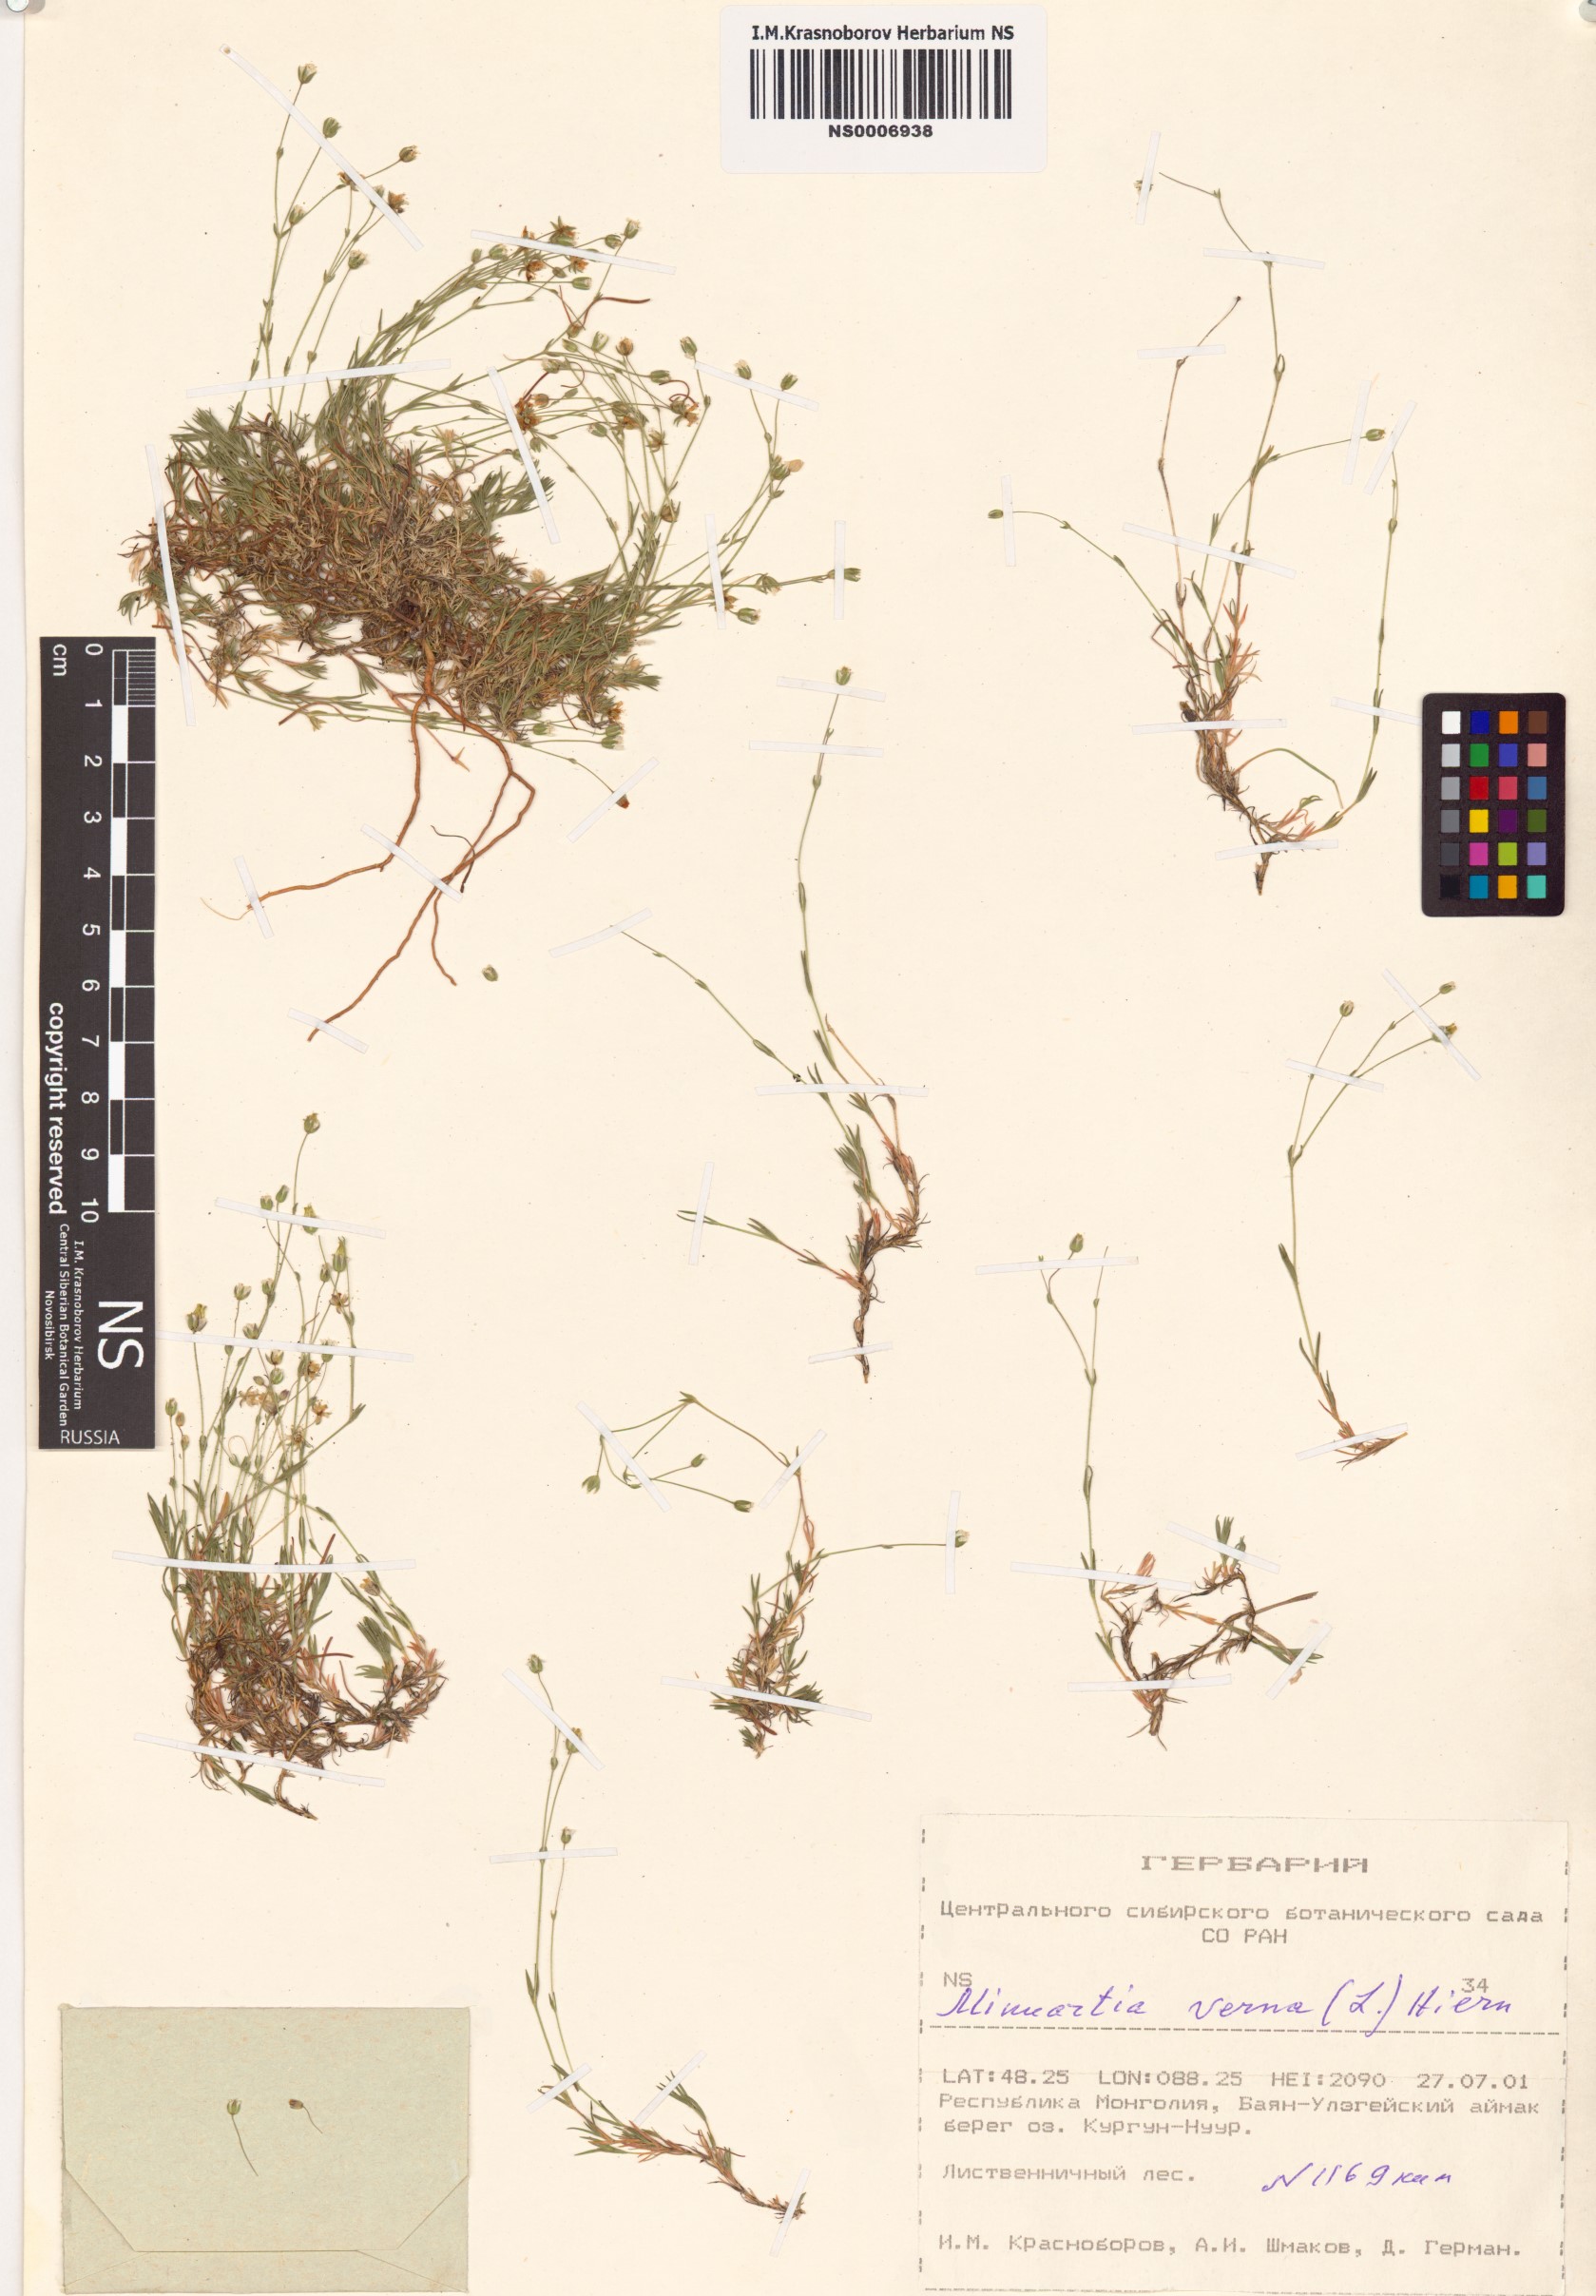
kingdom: Plantae
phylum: Tracheophyta
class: Magnoliopsida
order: Caryophyllales
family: Caryophyllaceae
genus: Sabulina
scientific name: Sabulina verna
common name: Spring sandwort
